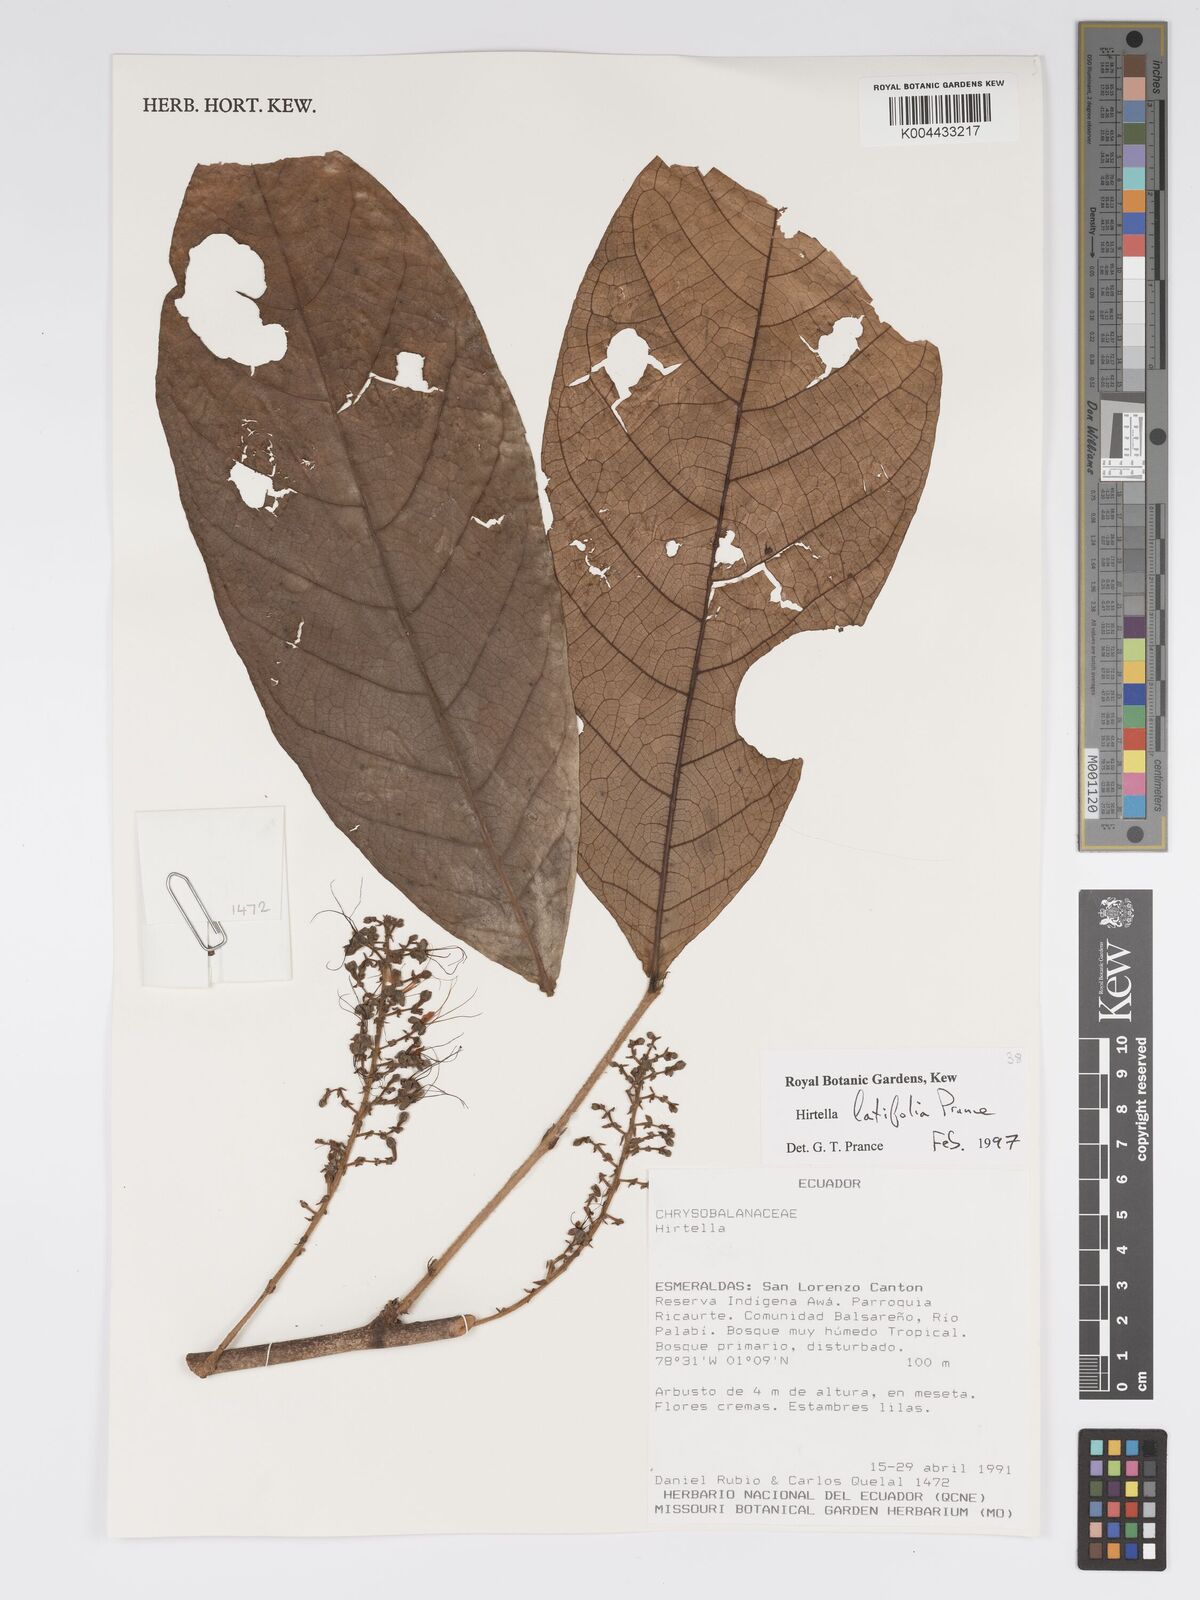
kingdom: Plantae
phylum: Tracheophyta
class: Magnoliopsida
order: Malpighiales
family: Chrysobalanaceae
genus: Hirtella
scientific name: Hirtella latifolia
